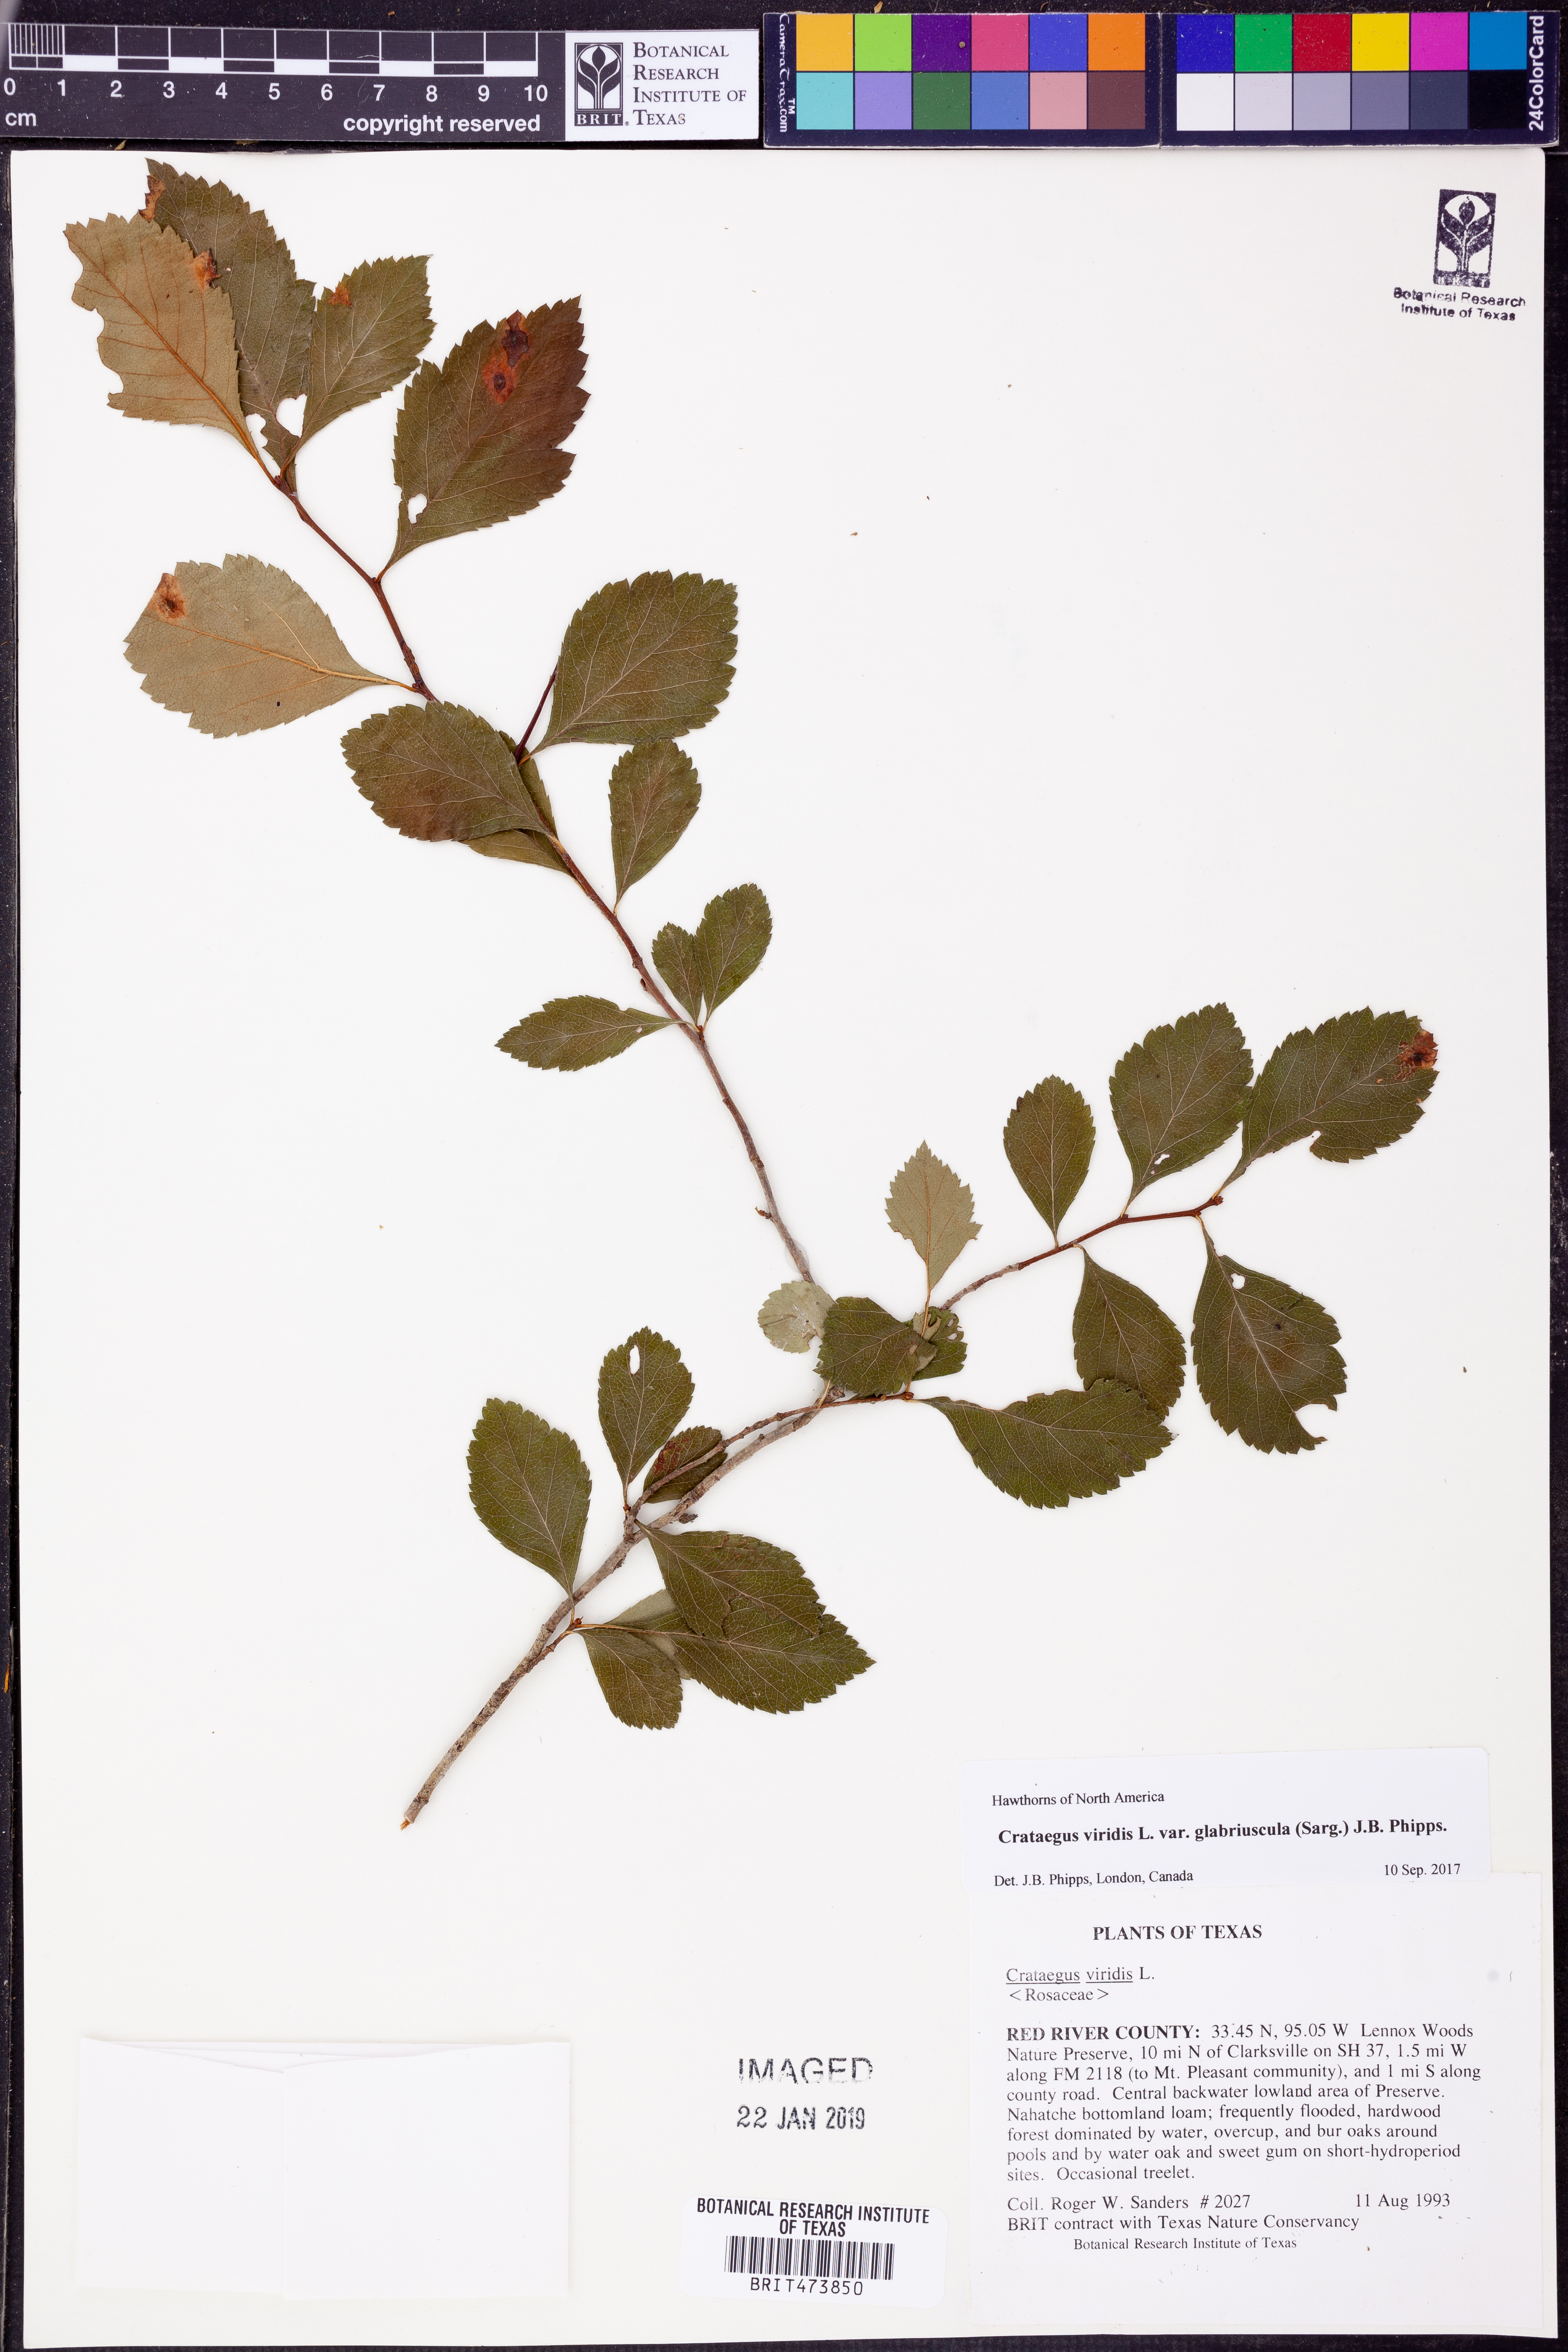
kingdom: Plantae
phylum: Tracheophyta
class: Magnoliopsida
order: Rosales
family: Rosaceae
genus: Crataegus
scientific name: Crataegus viridis
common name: Southernthorn
